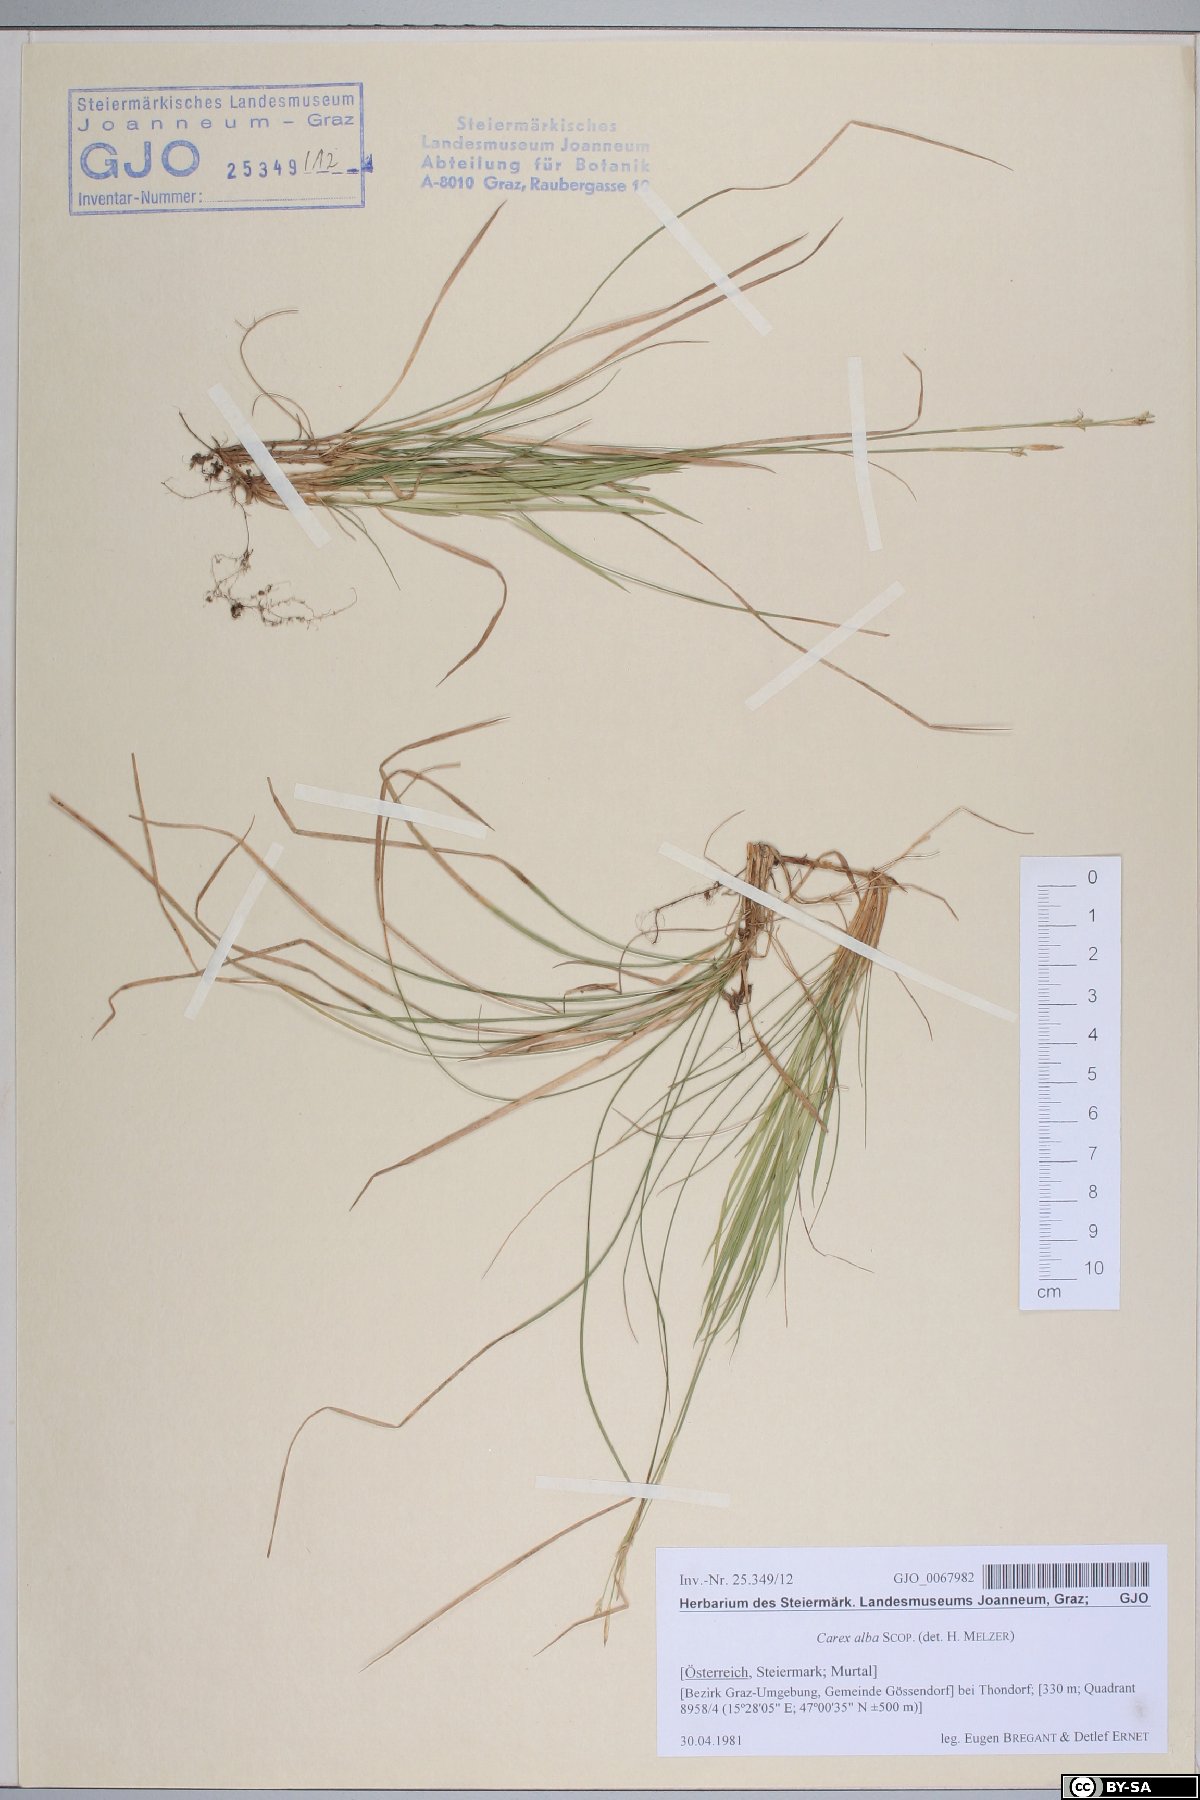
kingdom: Plantae
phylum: Tracheophyta
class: Liliopsida
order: Poales
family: Cyperaceae
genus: Carex
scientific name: Carex alba
